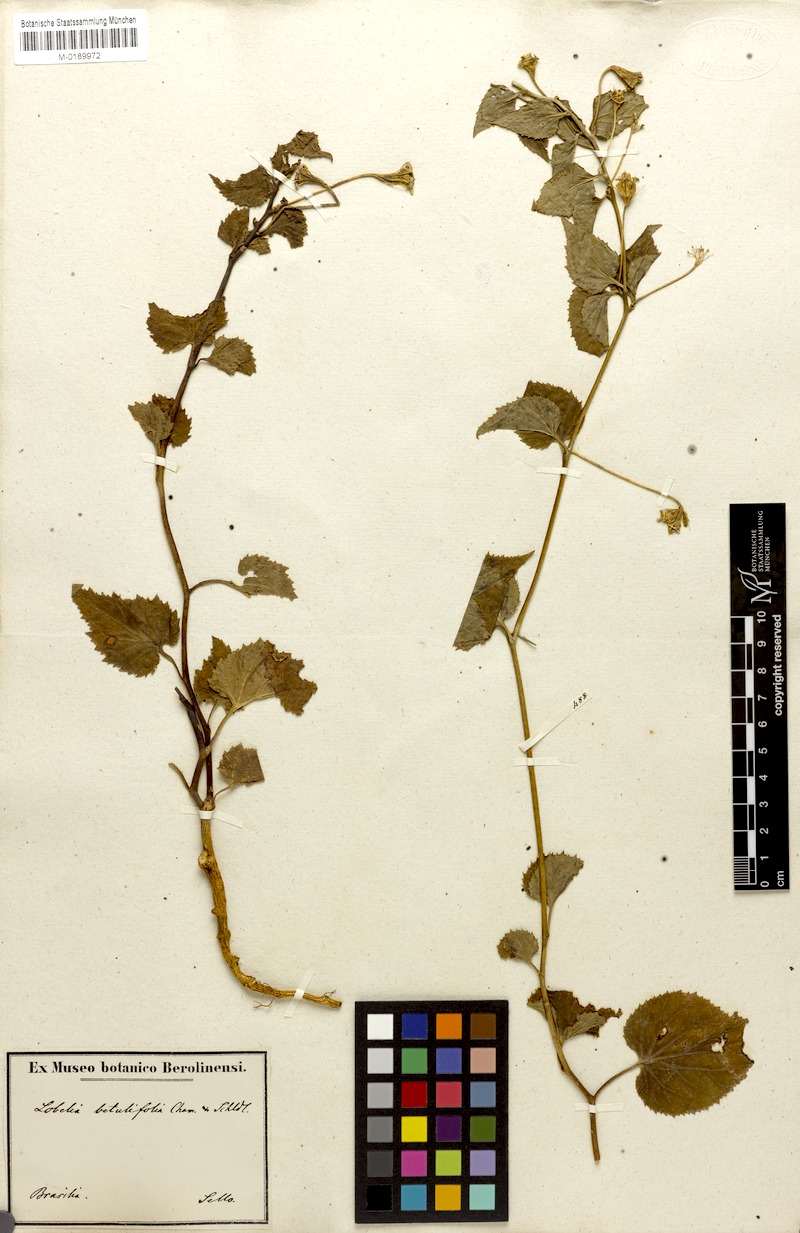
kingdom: Plantae
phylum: Tracheophyta
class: Magnoliopsida
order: Asterales
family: Campanulaceae
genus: Siphocampylus
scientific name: Siphocampylus betulifolius
